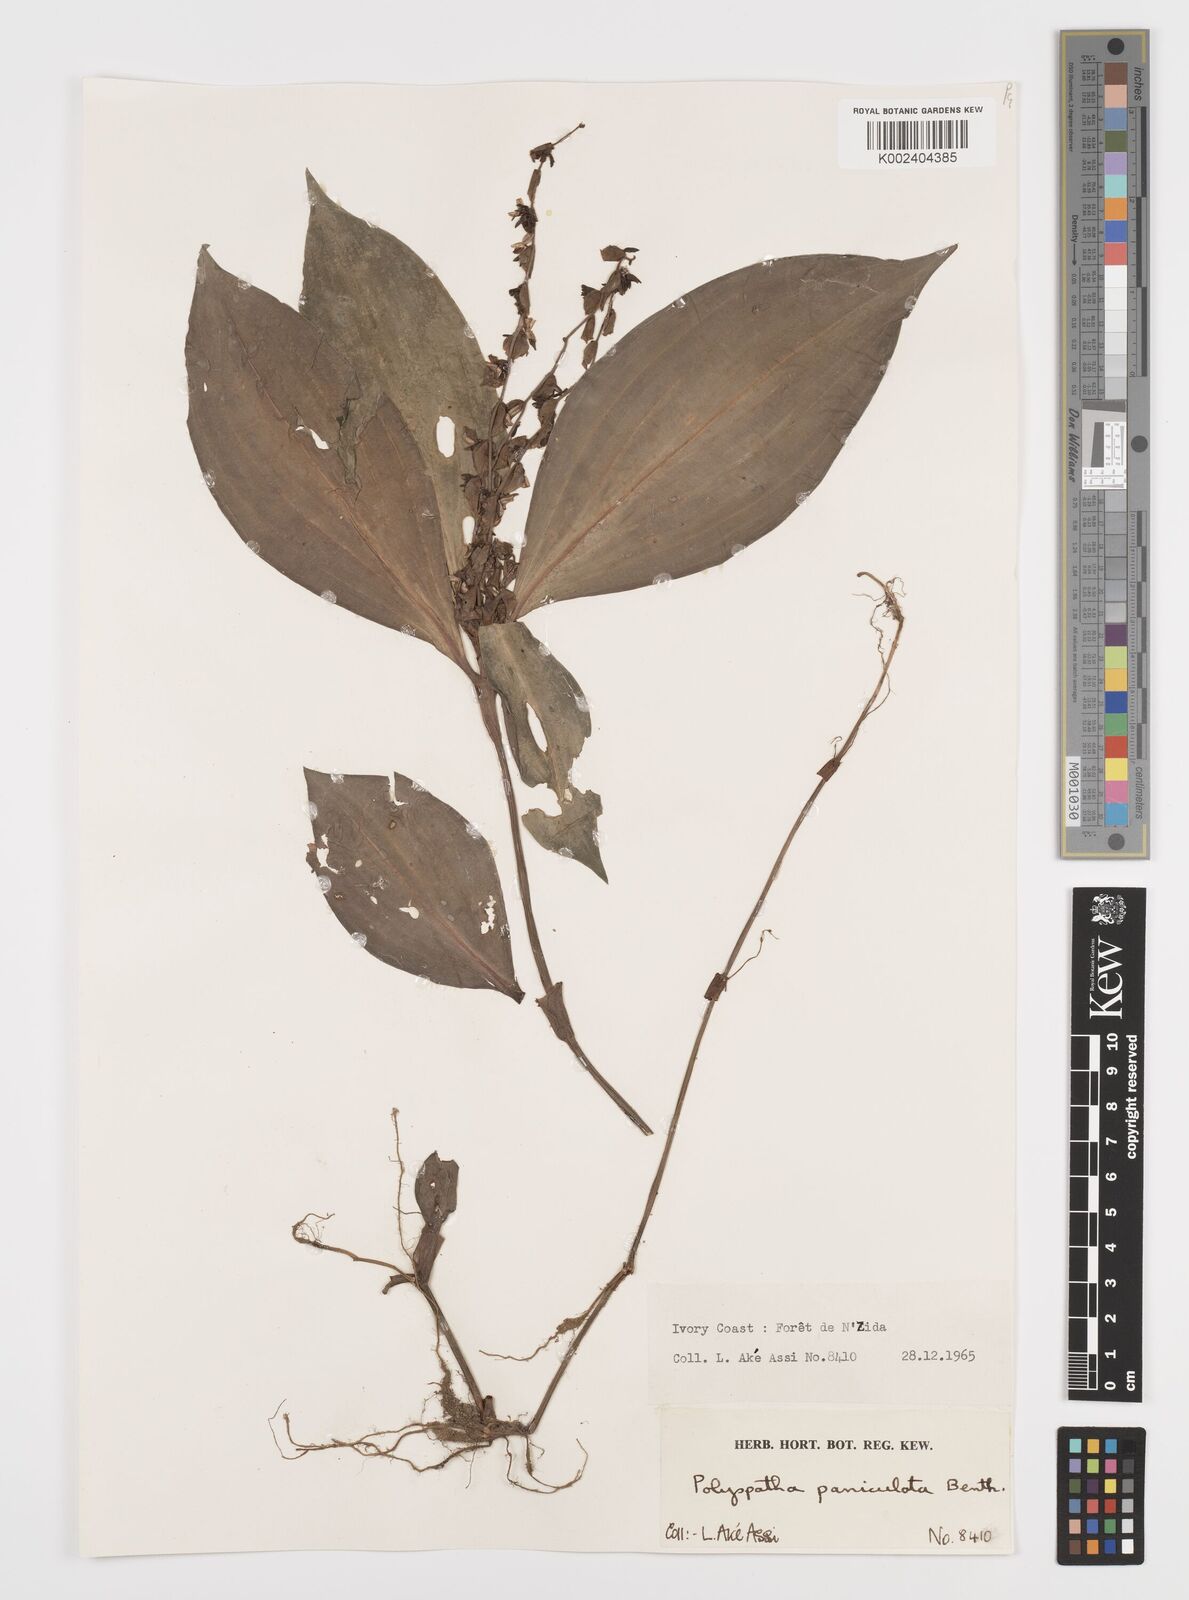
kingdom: Plantae
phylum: Tracheophyta
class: Liliopsida
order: Commelinales
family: Commelinaceae
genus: Polyspatha
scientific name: Polyspatha paniculata
